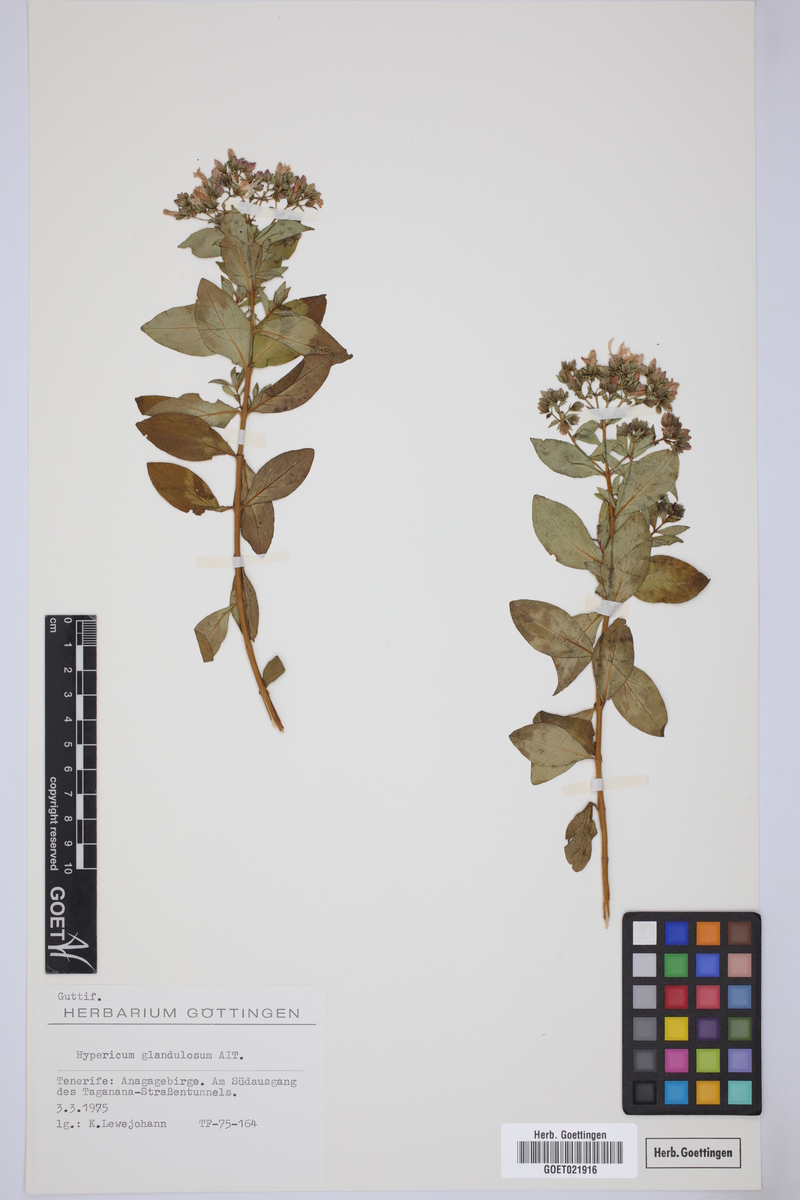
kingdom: Plantae
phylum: Tracheophyta
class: Magnoliopsida
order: Malpighiales
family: Hypericaceae
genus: Hypericum
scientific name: Hypericum glandulosum
